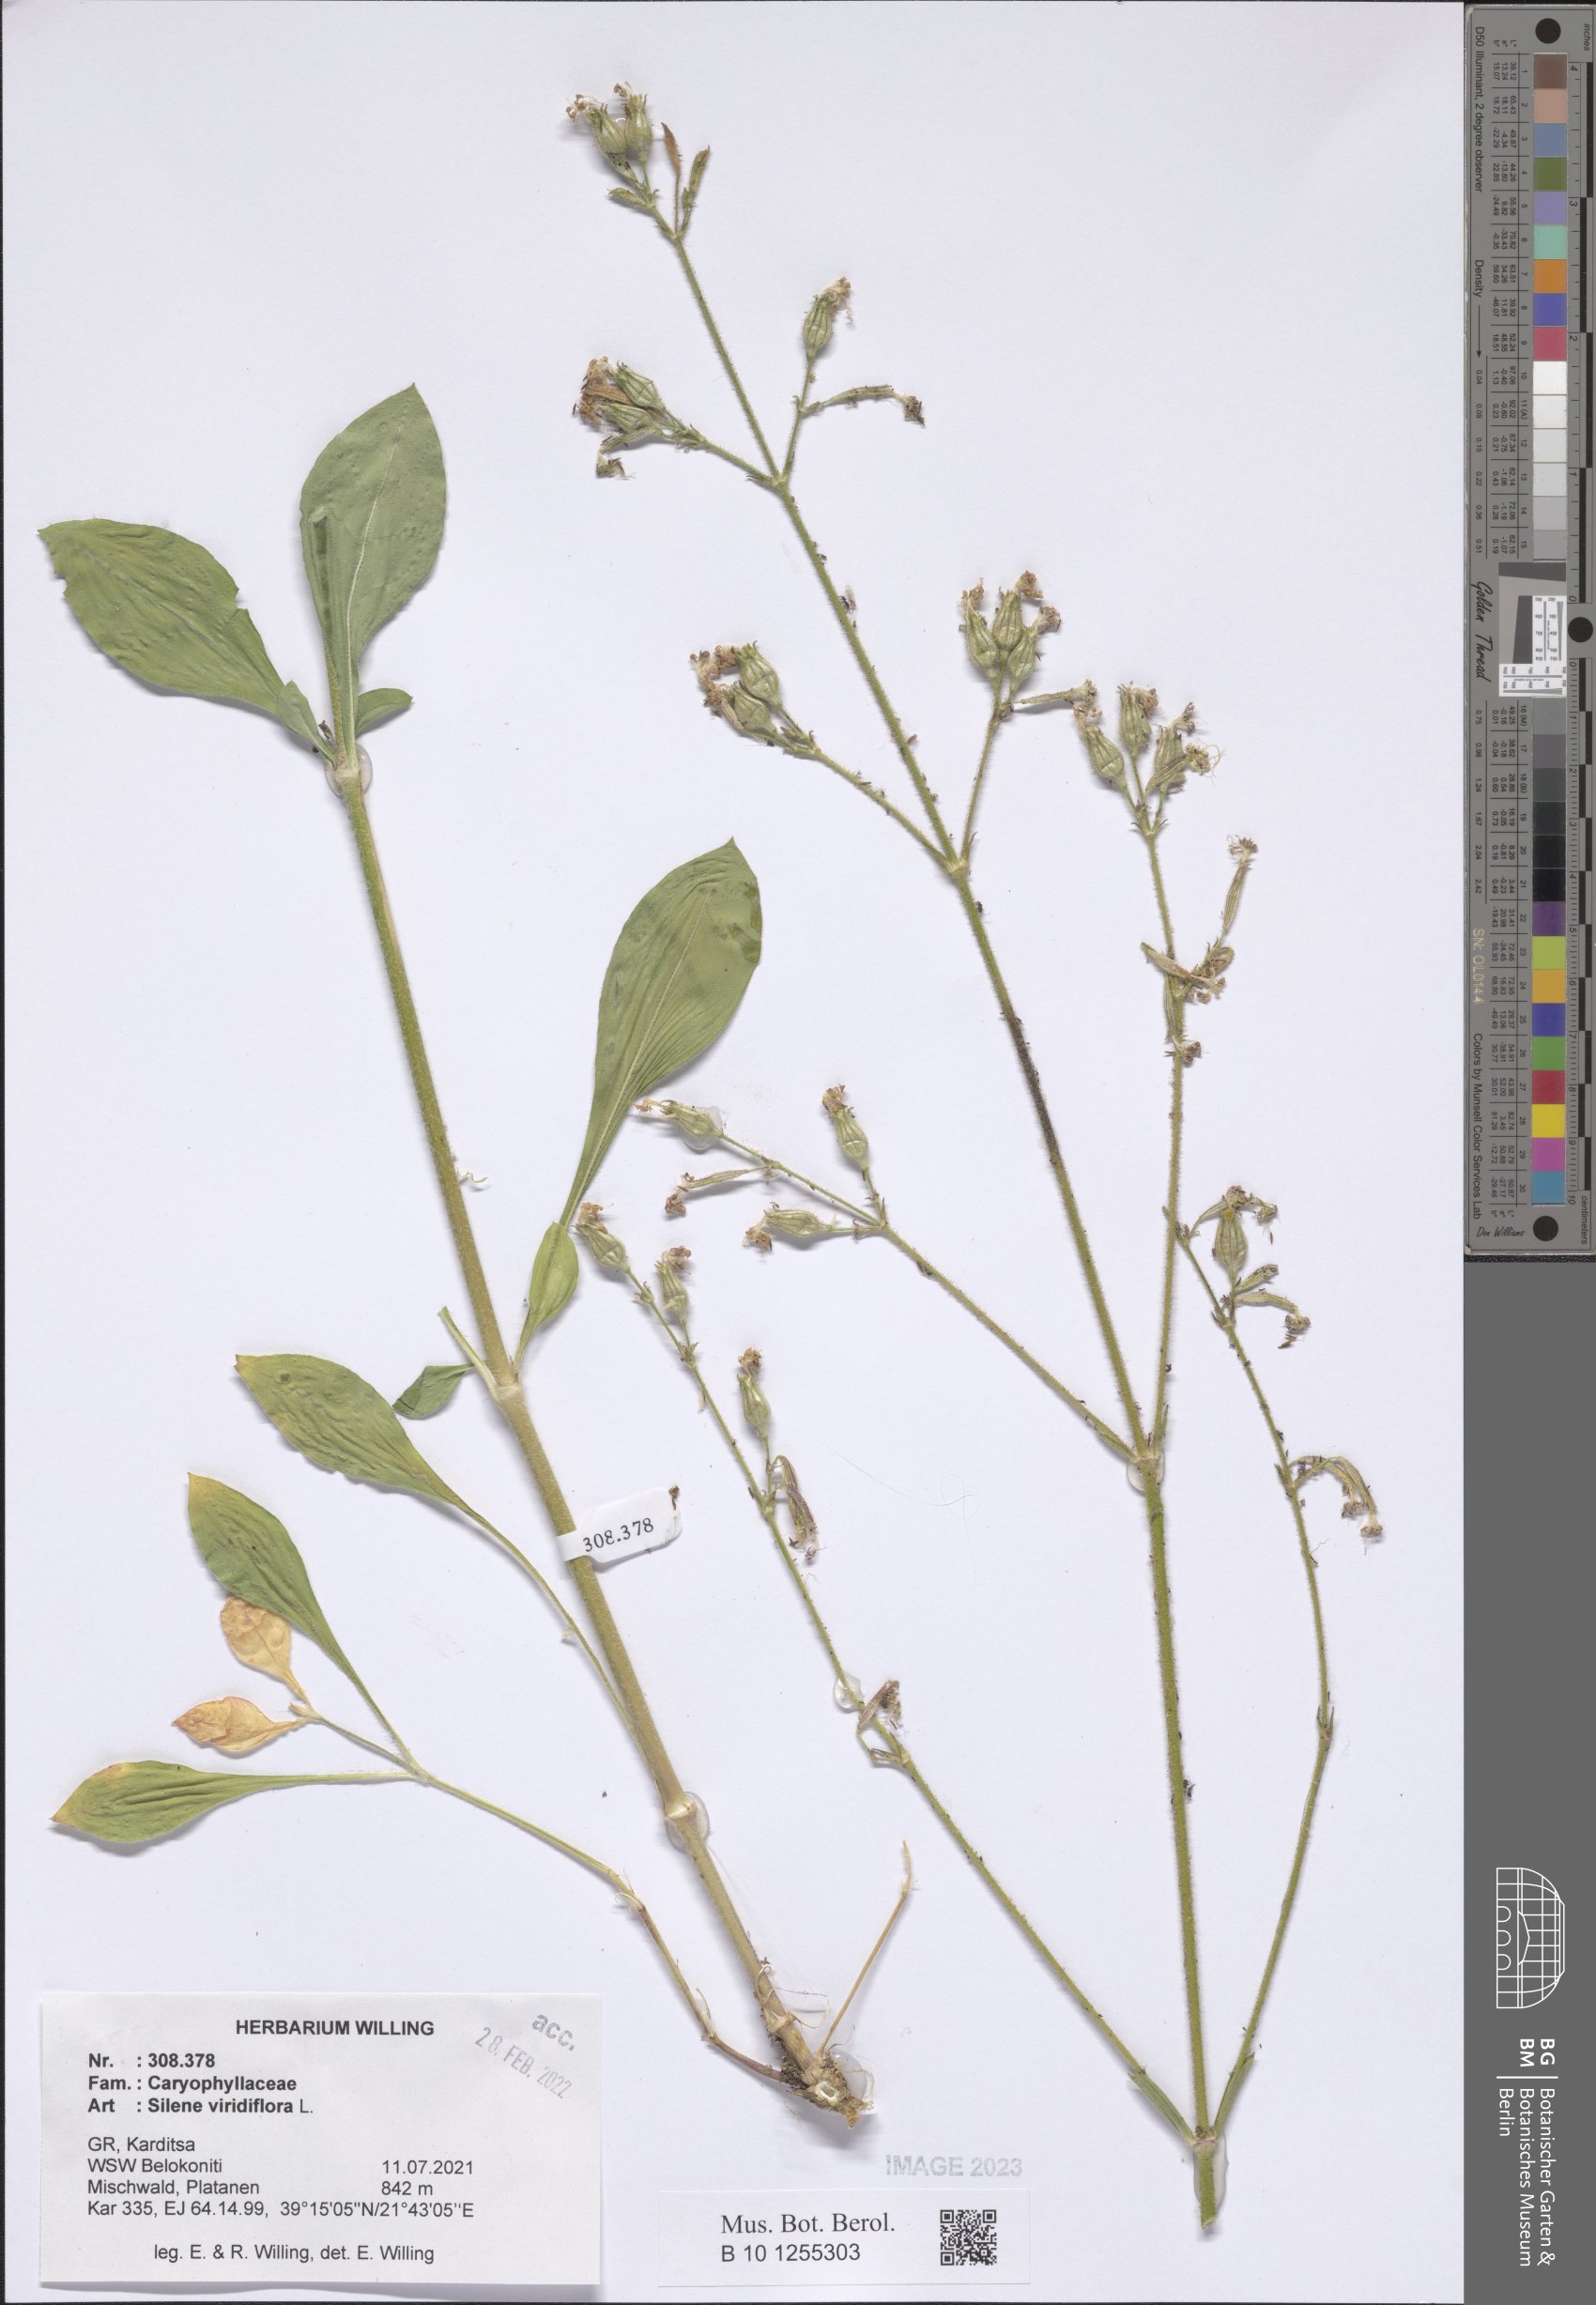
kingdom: Plantae
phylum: Tracheophyta
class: Magnoliopsida
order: Caryophyllales
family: Caryophyllaceae
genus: Silene
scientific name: Silene viridiflora
